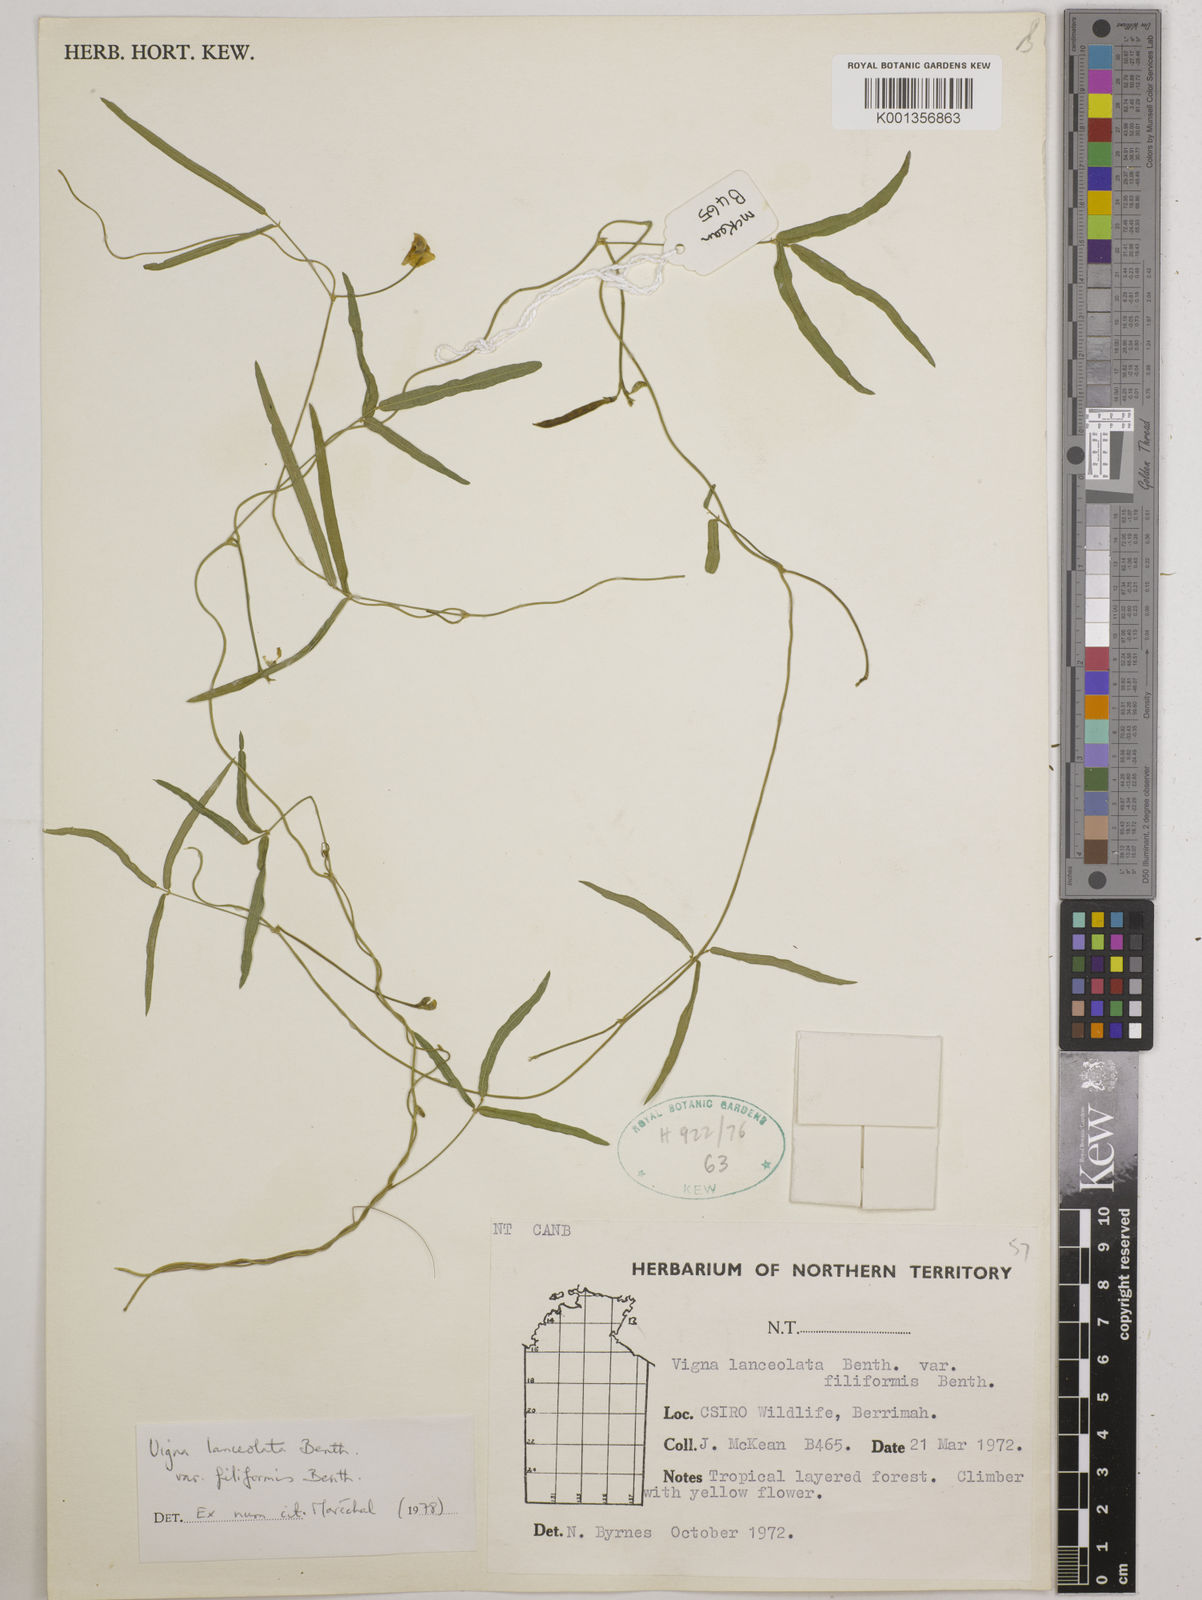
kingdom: Plantae
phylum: Tracheophyta
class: Magnoliopsida
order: Fabales
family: Fabaceae
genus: Vigna
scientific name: Vigna lanceolata
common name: Maloga-bean
